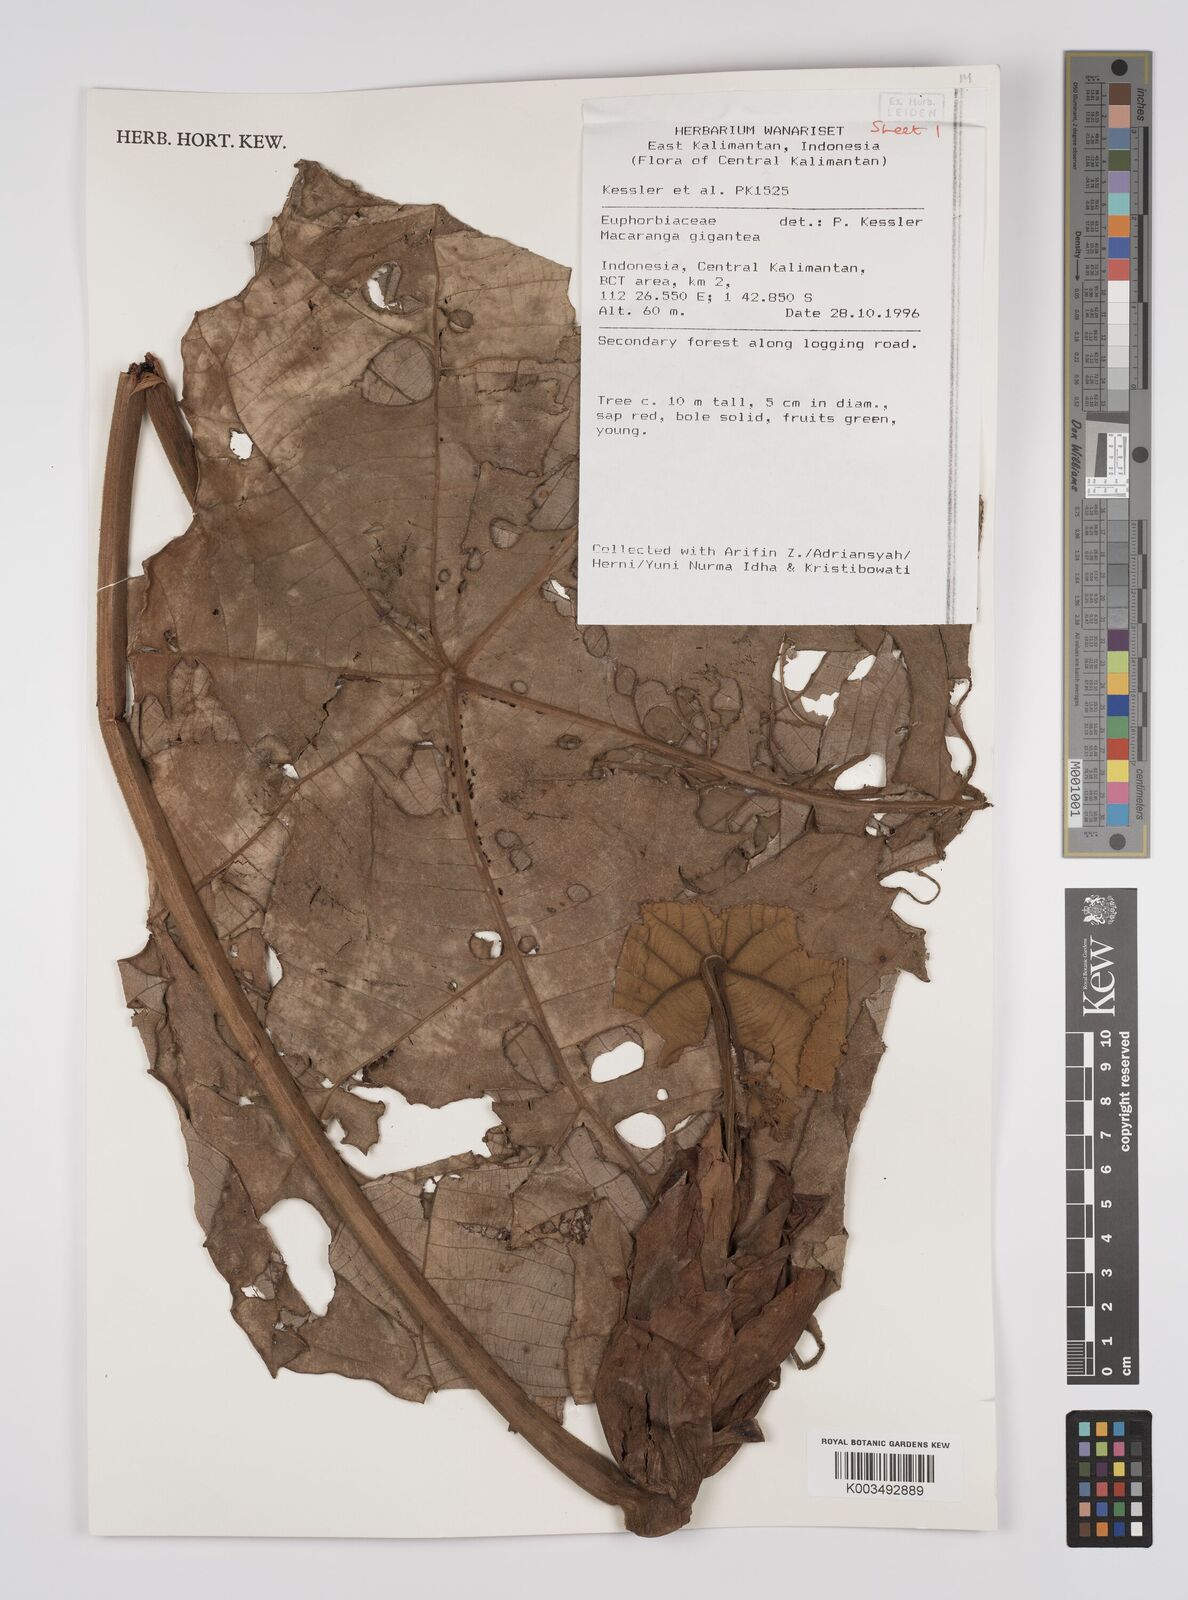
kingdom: Plantae
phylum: Tracheophyta
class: Magnoliopsida
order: Malpighiales
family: Euphorbiaceae
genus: Macaranga
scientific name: Macaranga gigantea
